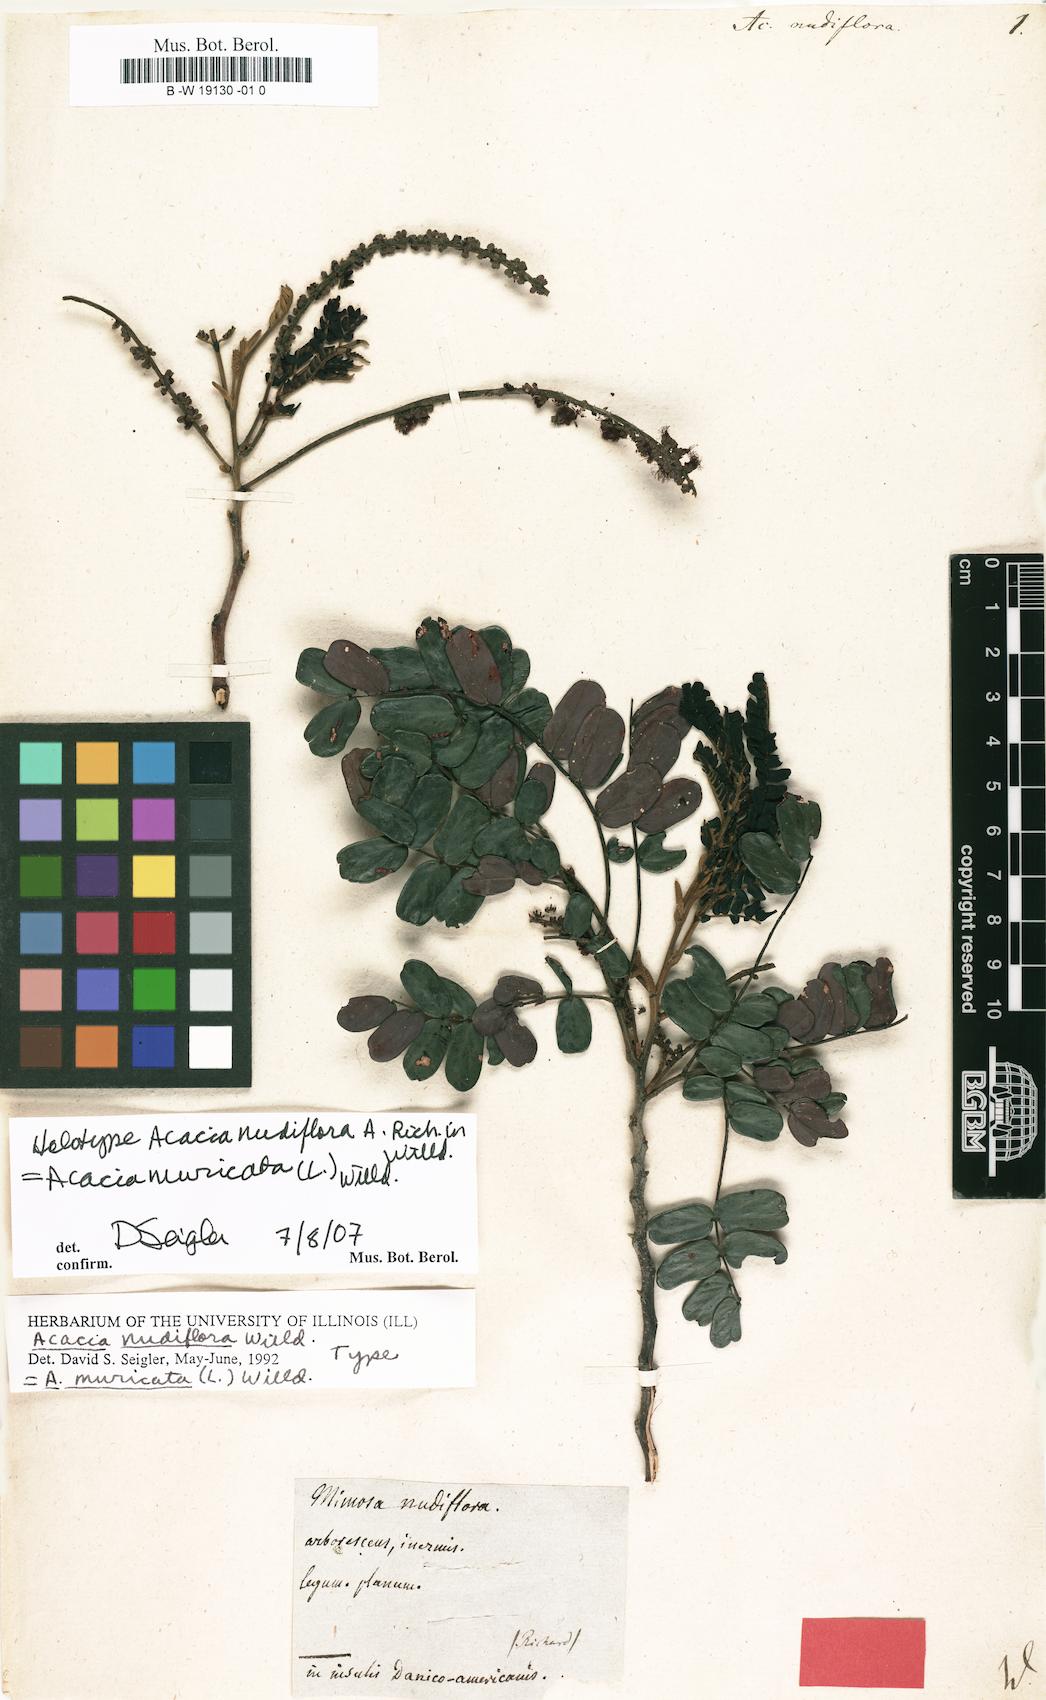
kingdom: Plantae
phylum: Tracheophyta
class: Magnoliopsida
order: Fabales
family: Fabaceae
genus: Parasenegalia
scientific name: Parasenegalia muricata
